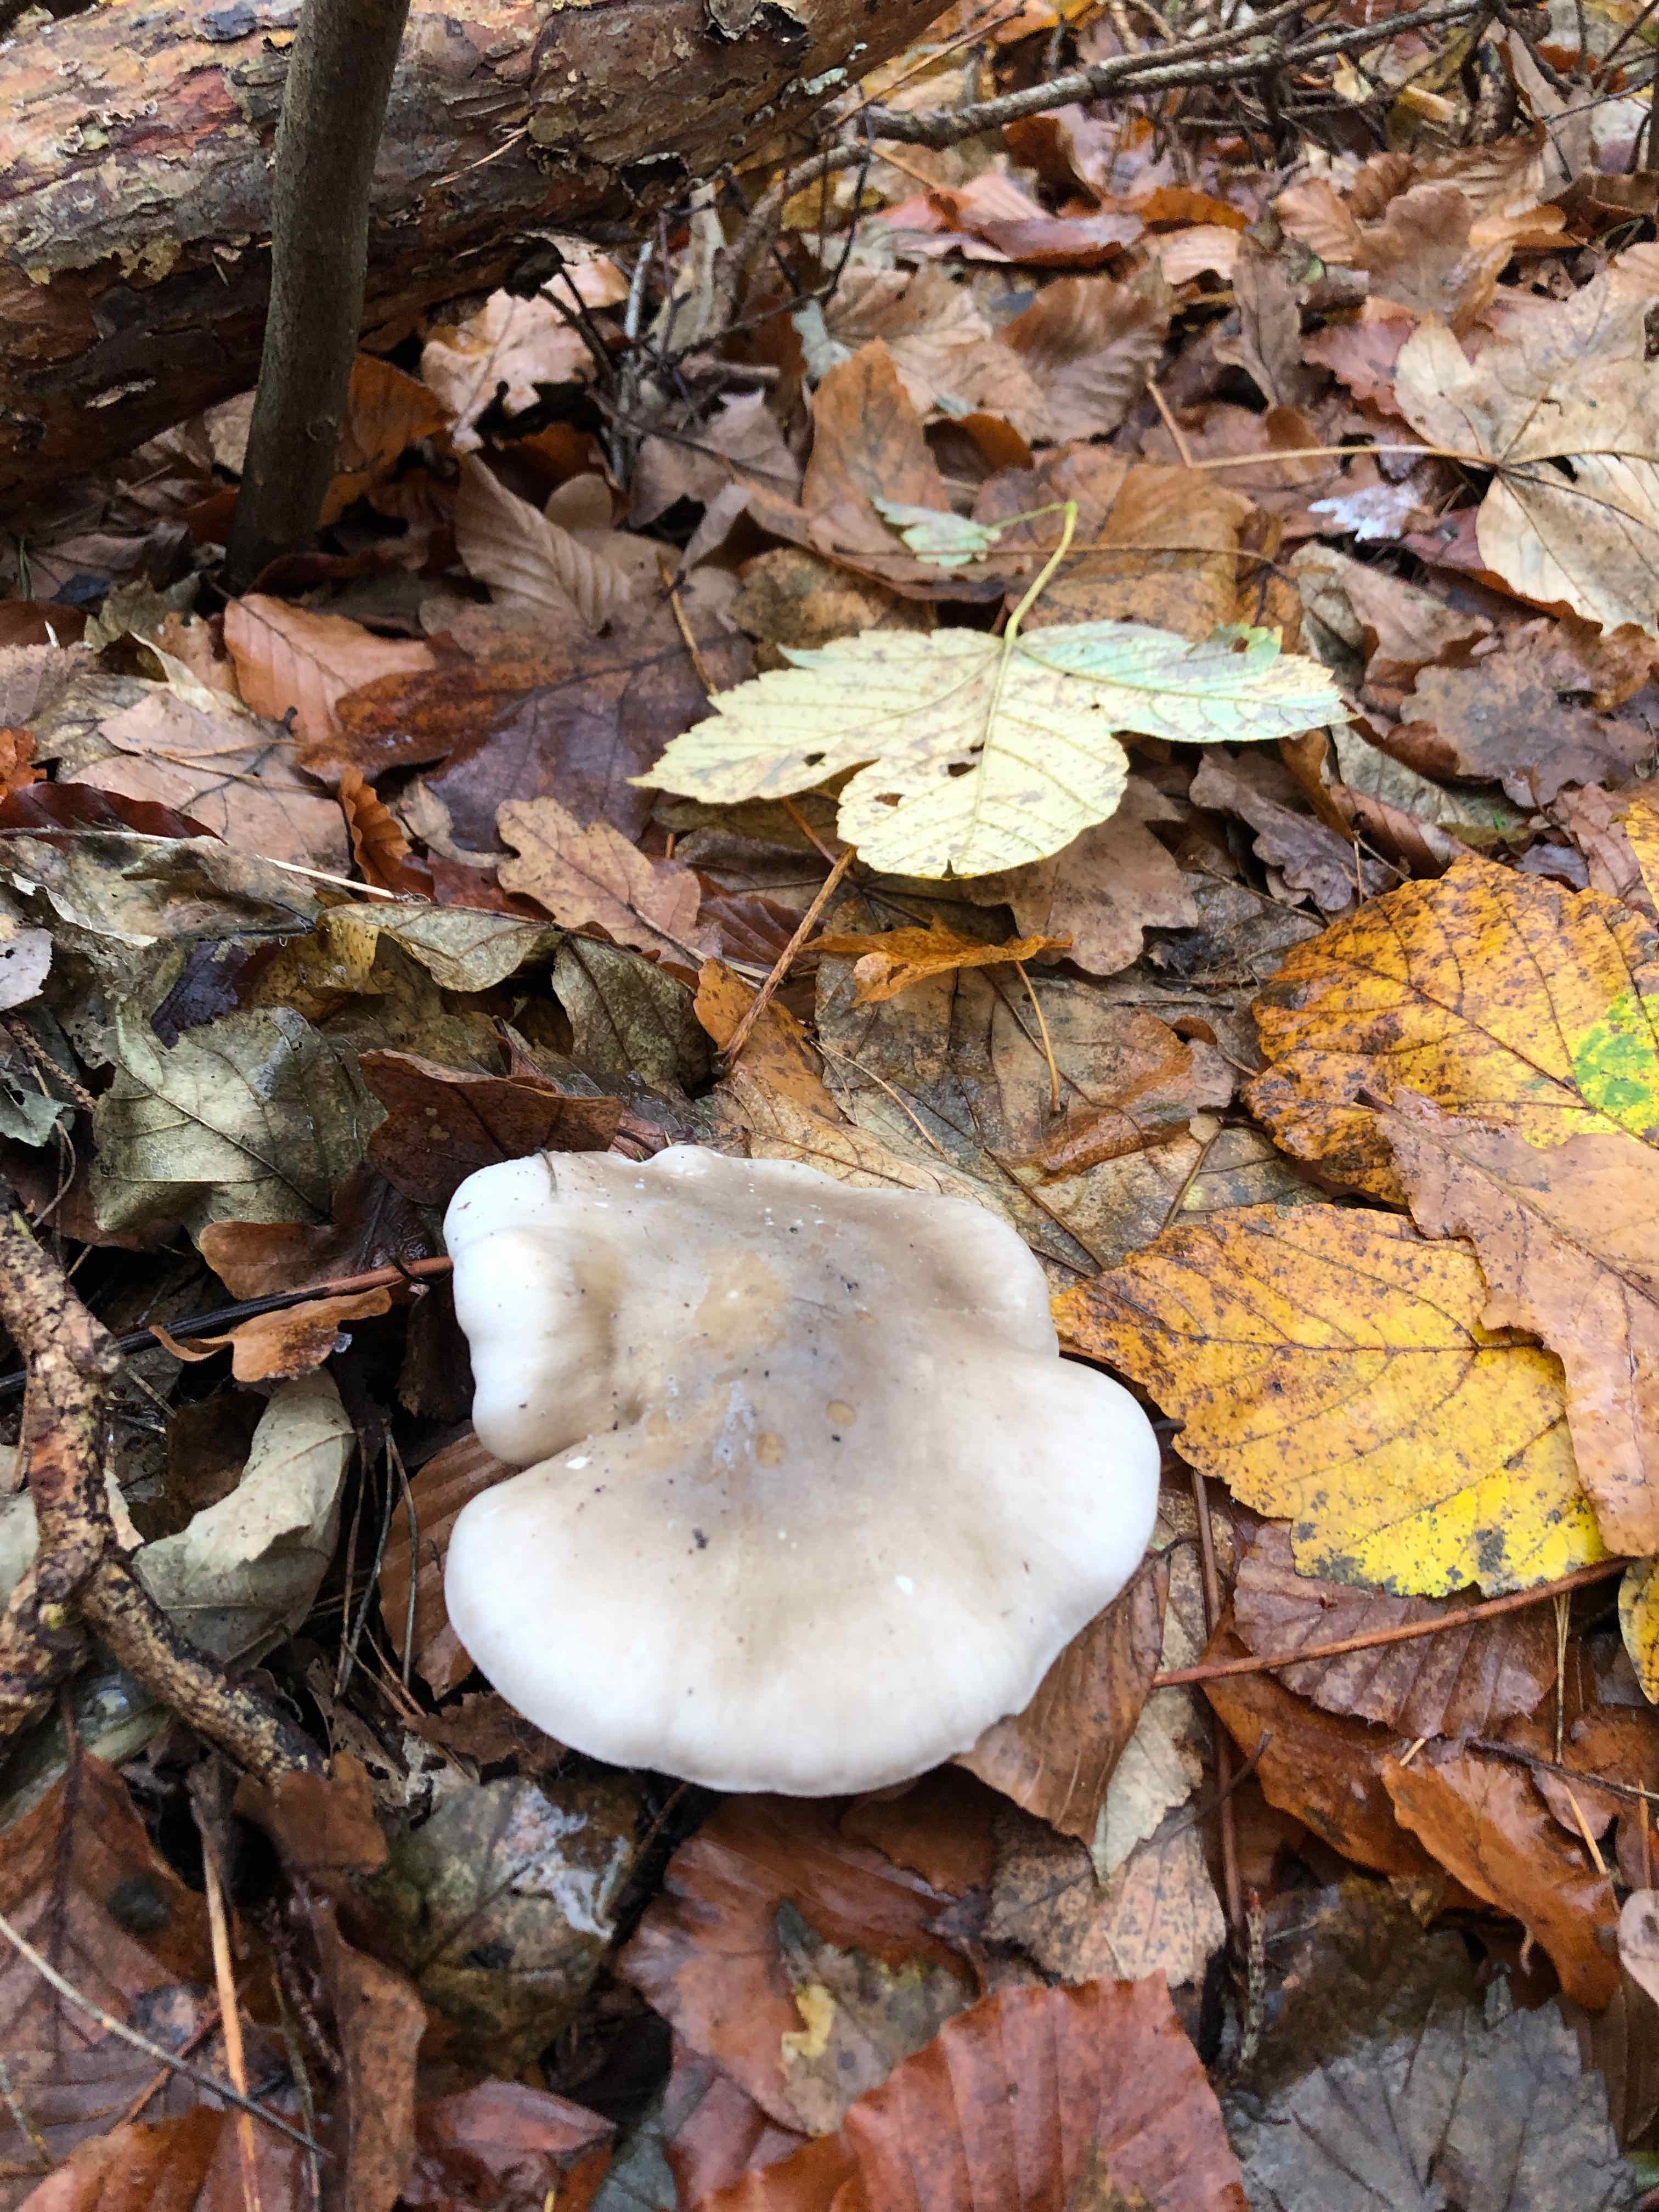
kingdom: Fungi
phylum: Basidiomycota
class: Agaricomycetes
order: Agaricales
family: Tricholomataceae
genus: Clitocybe
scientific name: Clitocybe nebularis
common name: tåge-tragthat
